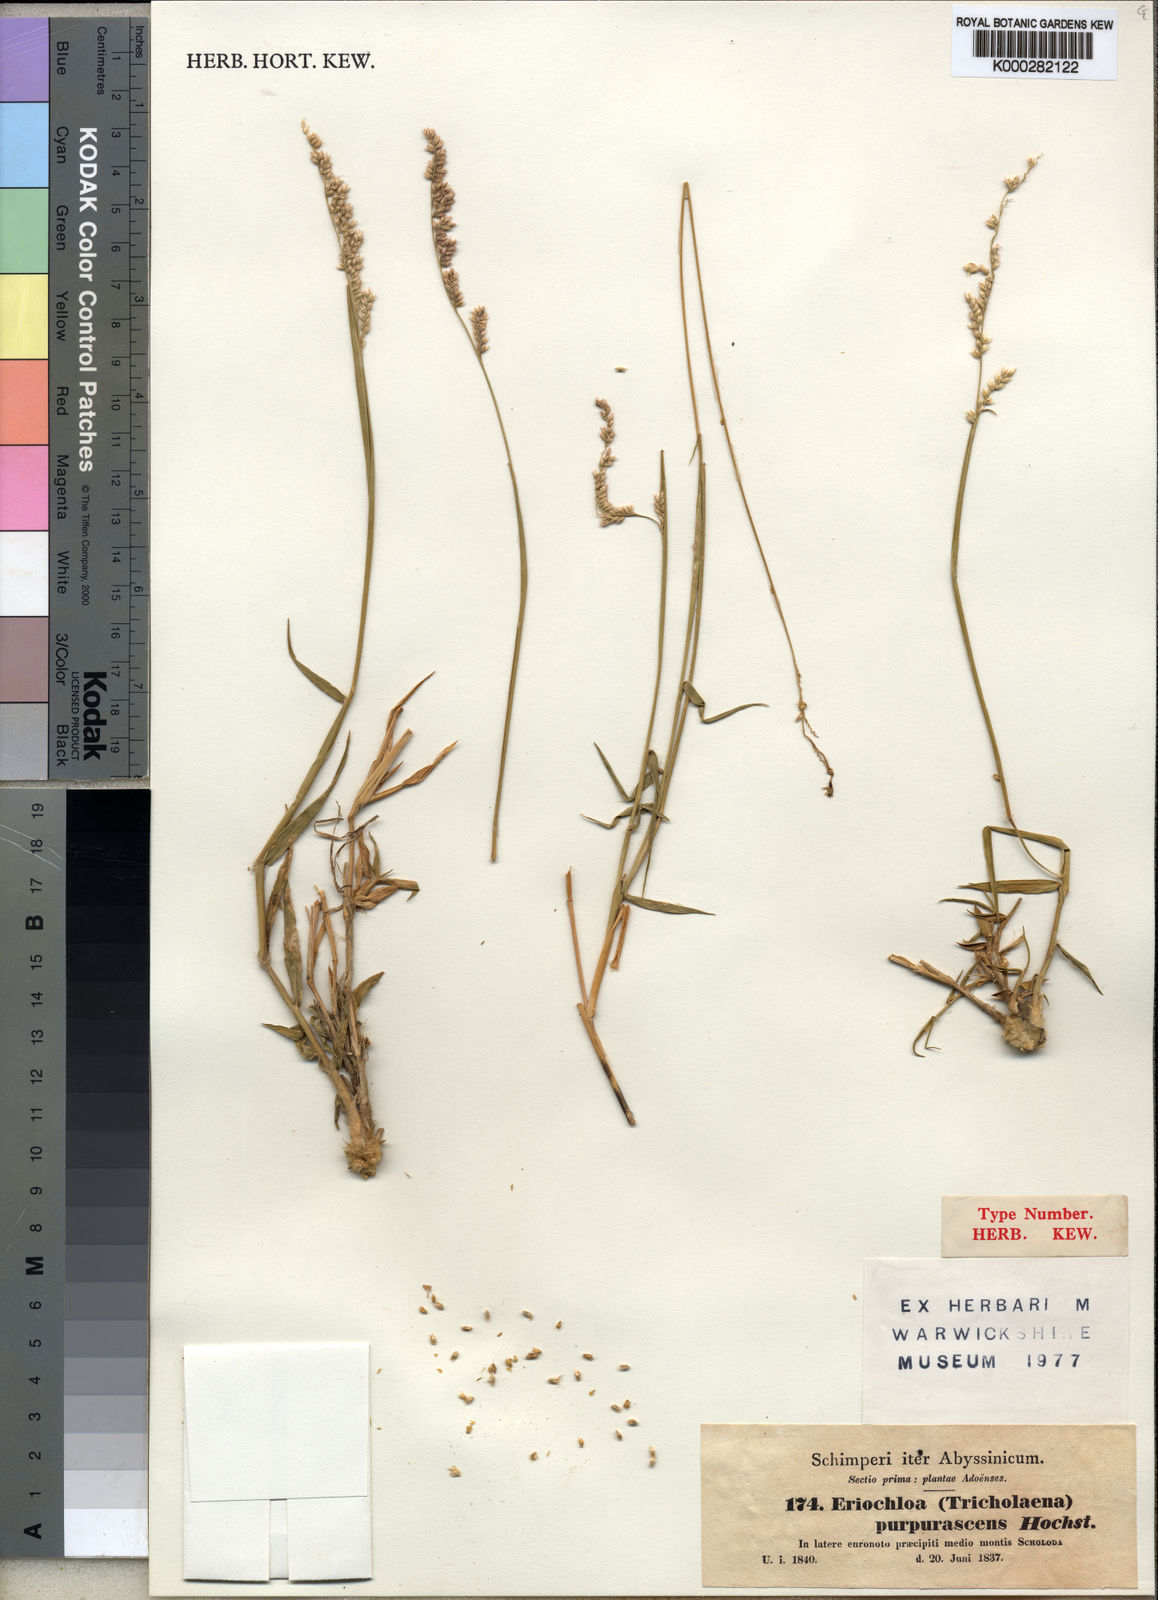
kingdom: Plantae
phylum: Tracheophyta
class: Liliopsida
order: Poales
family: Poaceae
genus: Urochloa
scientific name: Urochloa serrata
